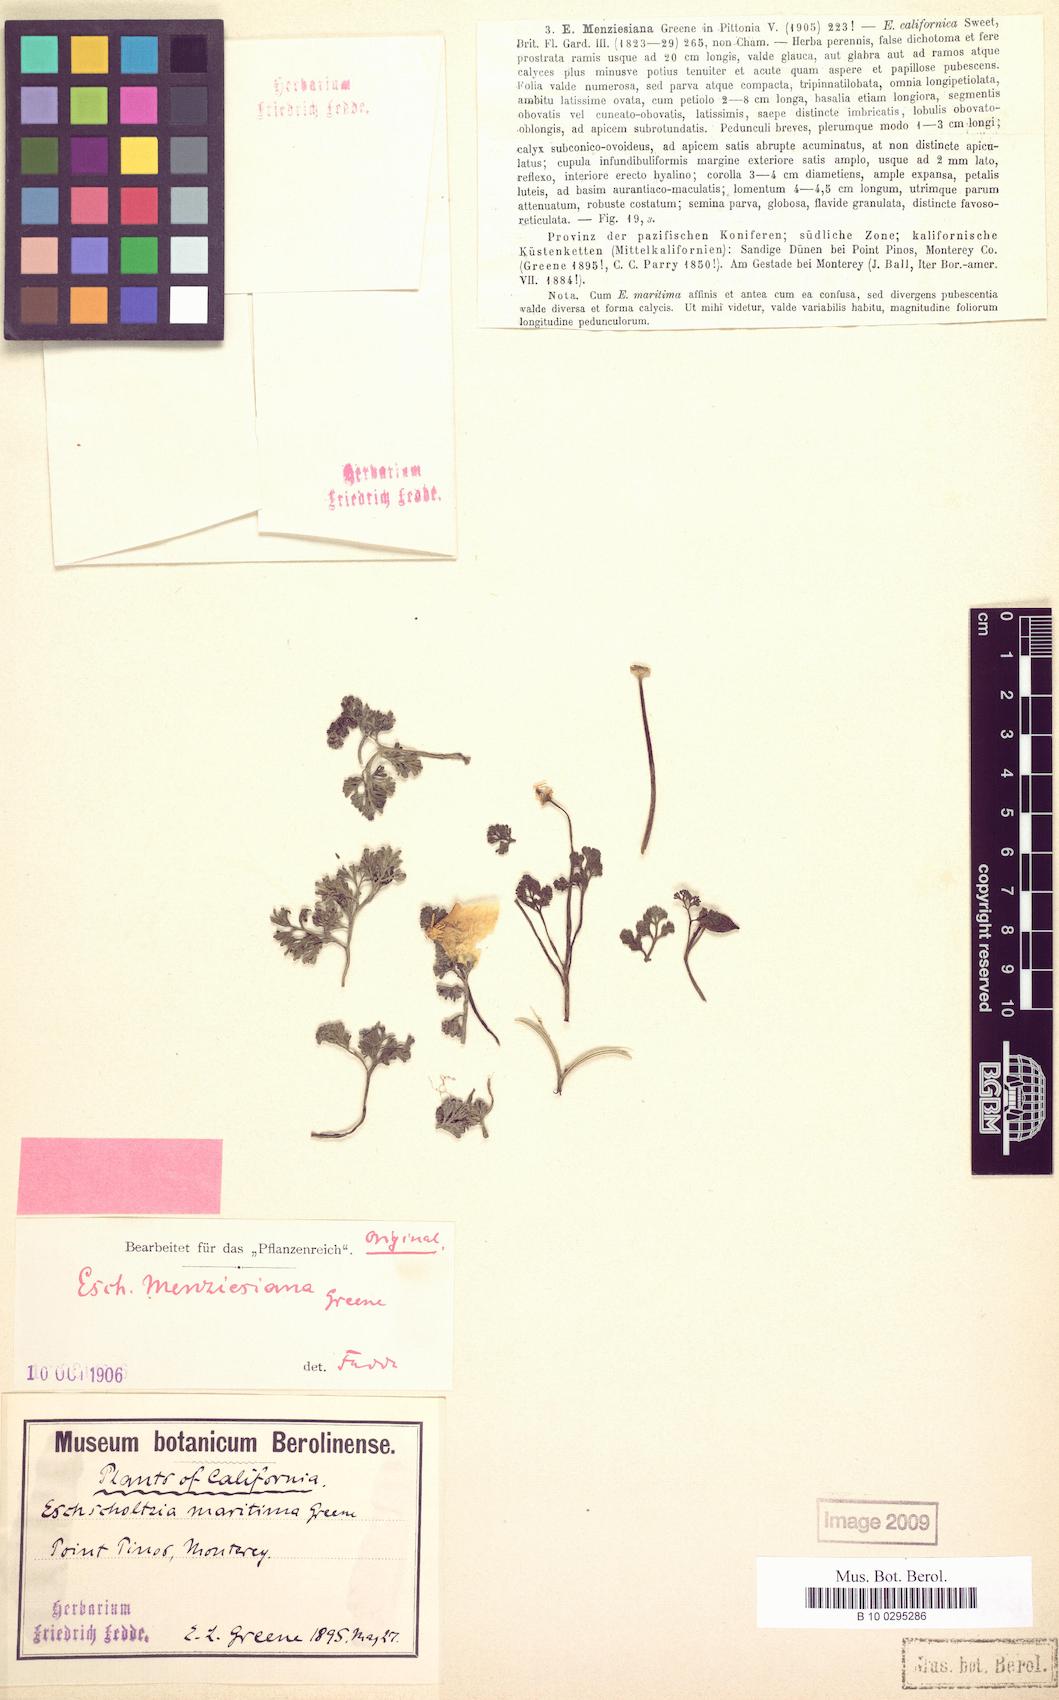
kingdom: Plantae
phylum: Tracheophyta
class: Magnoliopsida
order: Ranunculales
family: Papaveraceae
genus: Eschscholzia
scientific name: Eschscholzia californica
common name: California poppy
